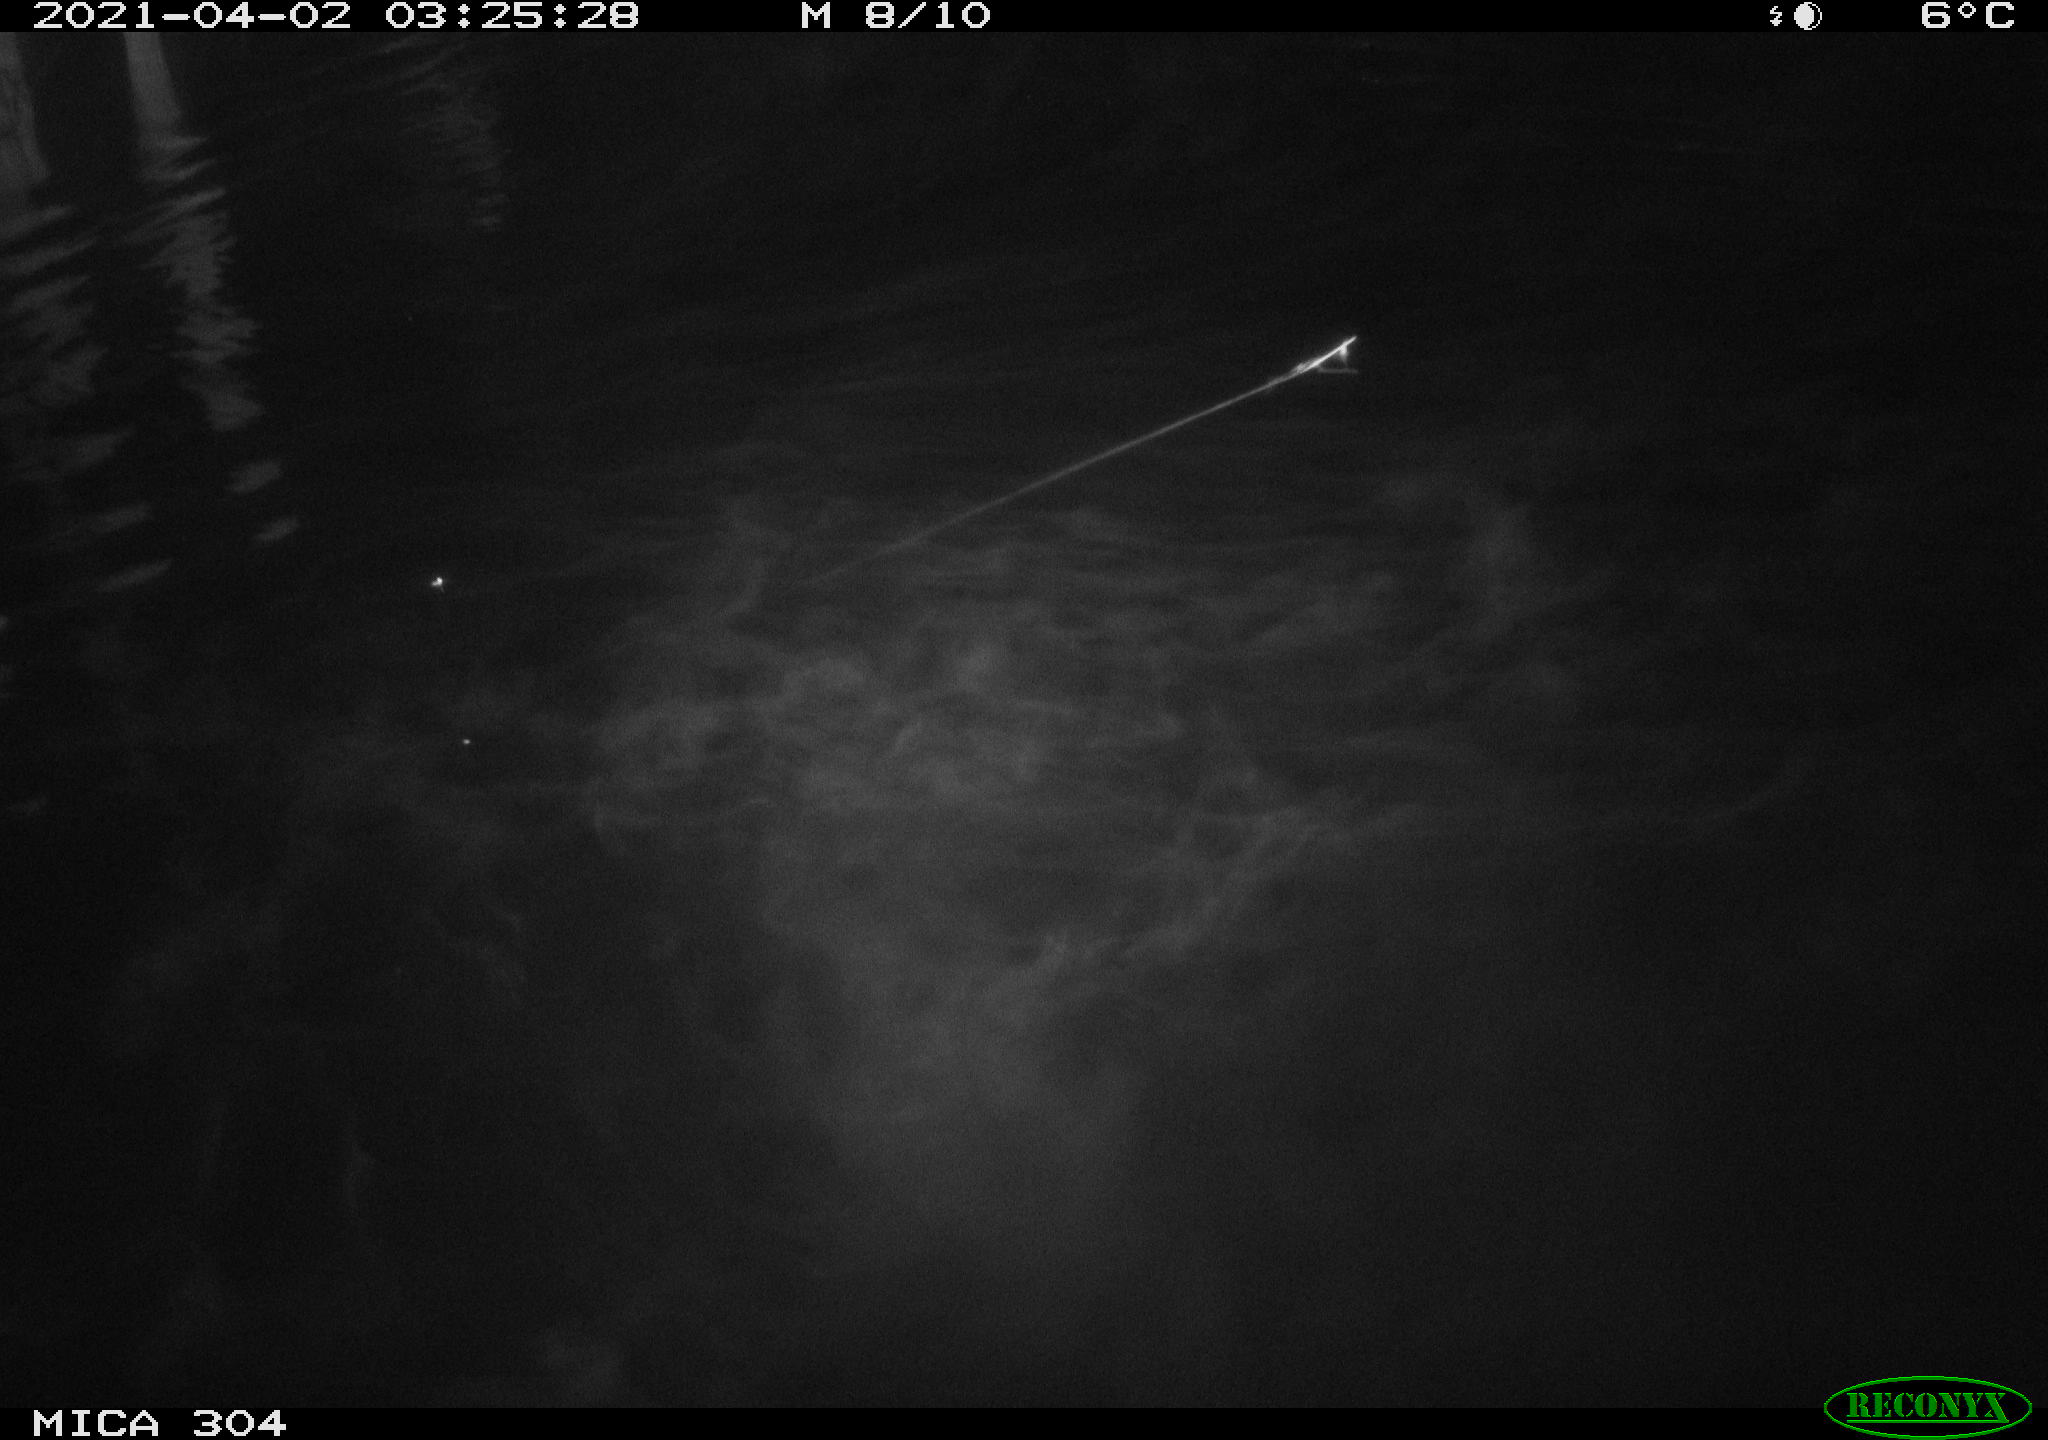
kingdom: Animalia
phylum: Chordata
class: Aves
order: Anseriformes
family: Anatidae
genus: Anas
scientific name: Anas
